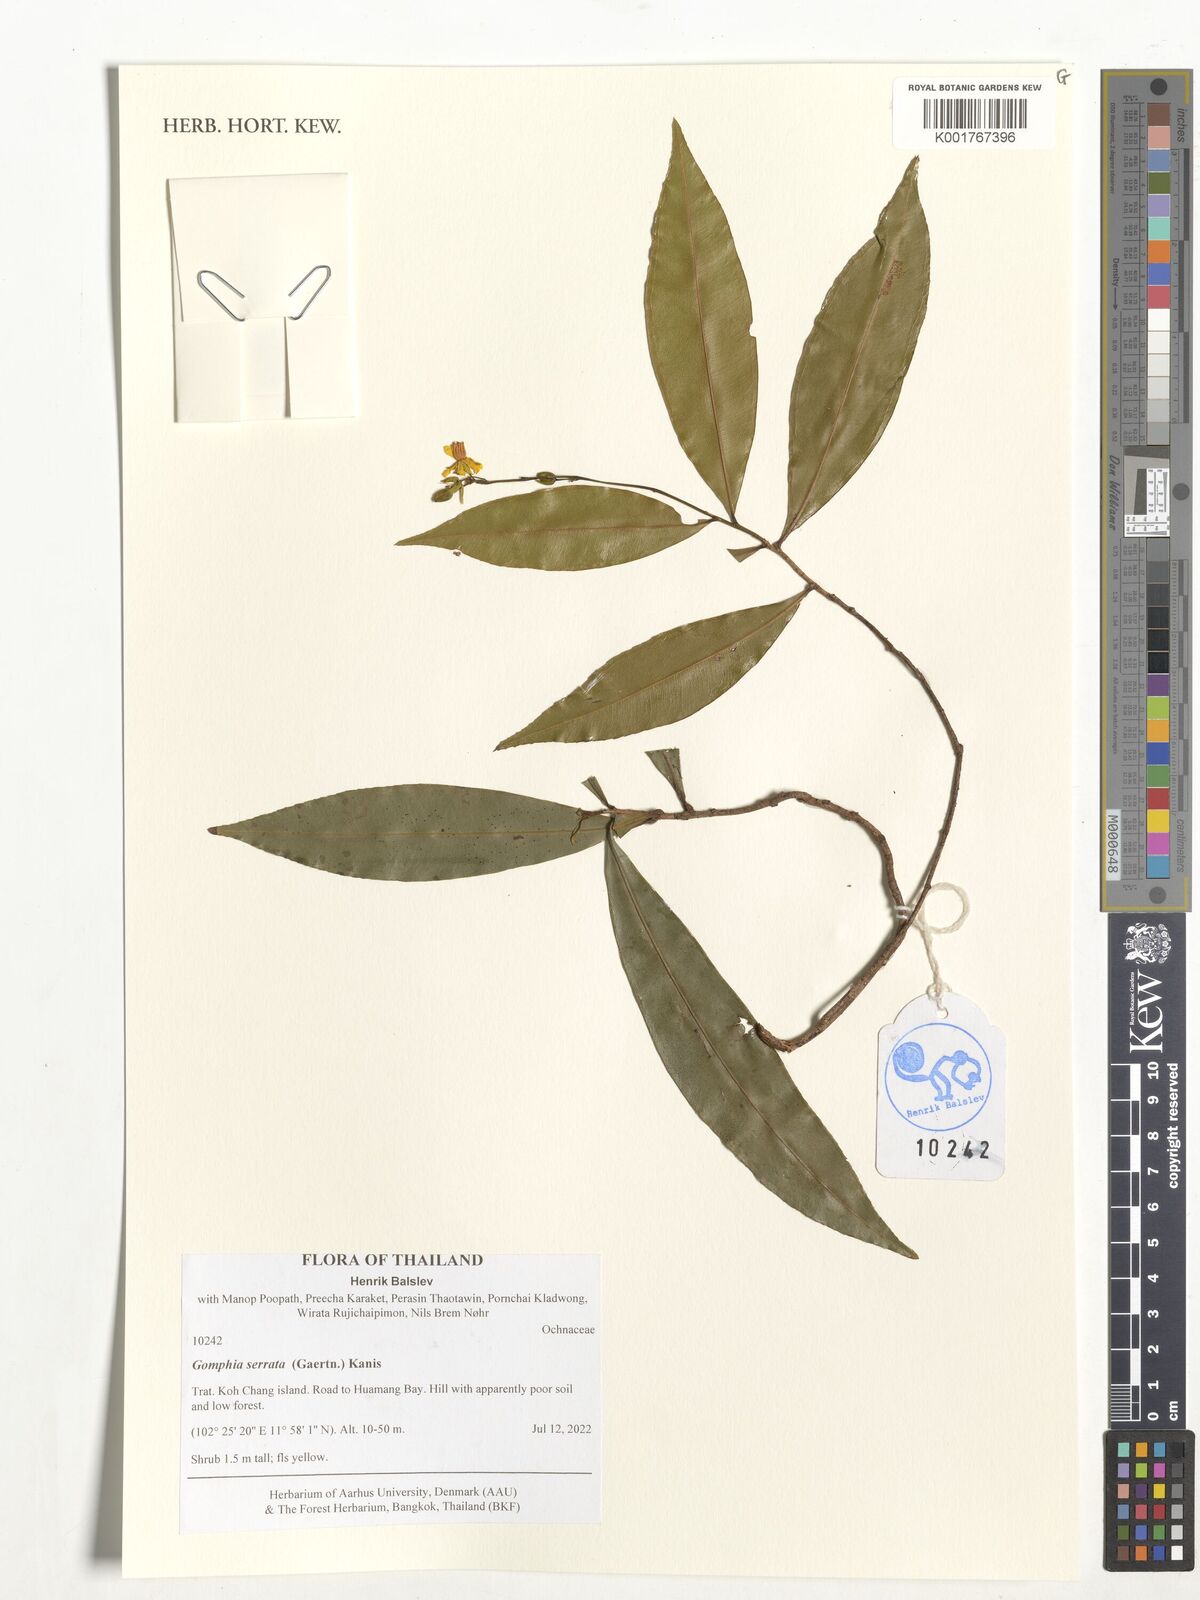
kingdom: Plantae
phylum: Tracheophyta
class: Magnoliopsida
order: Malpighiales
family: Ochnaceae
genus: Gomphia
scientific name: Gomphia serrata
